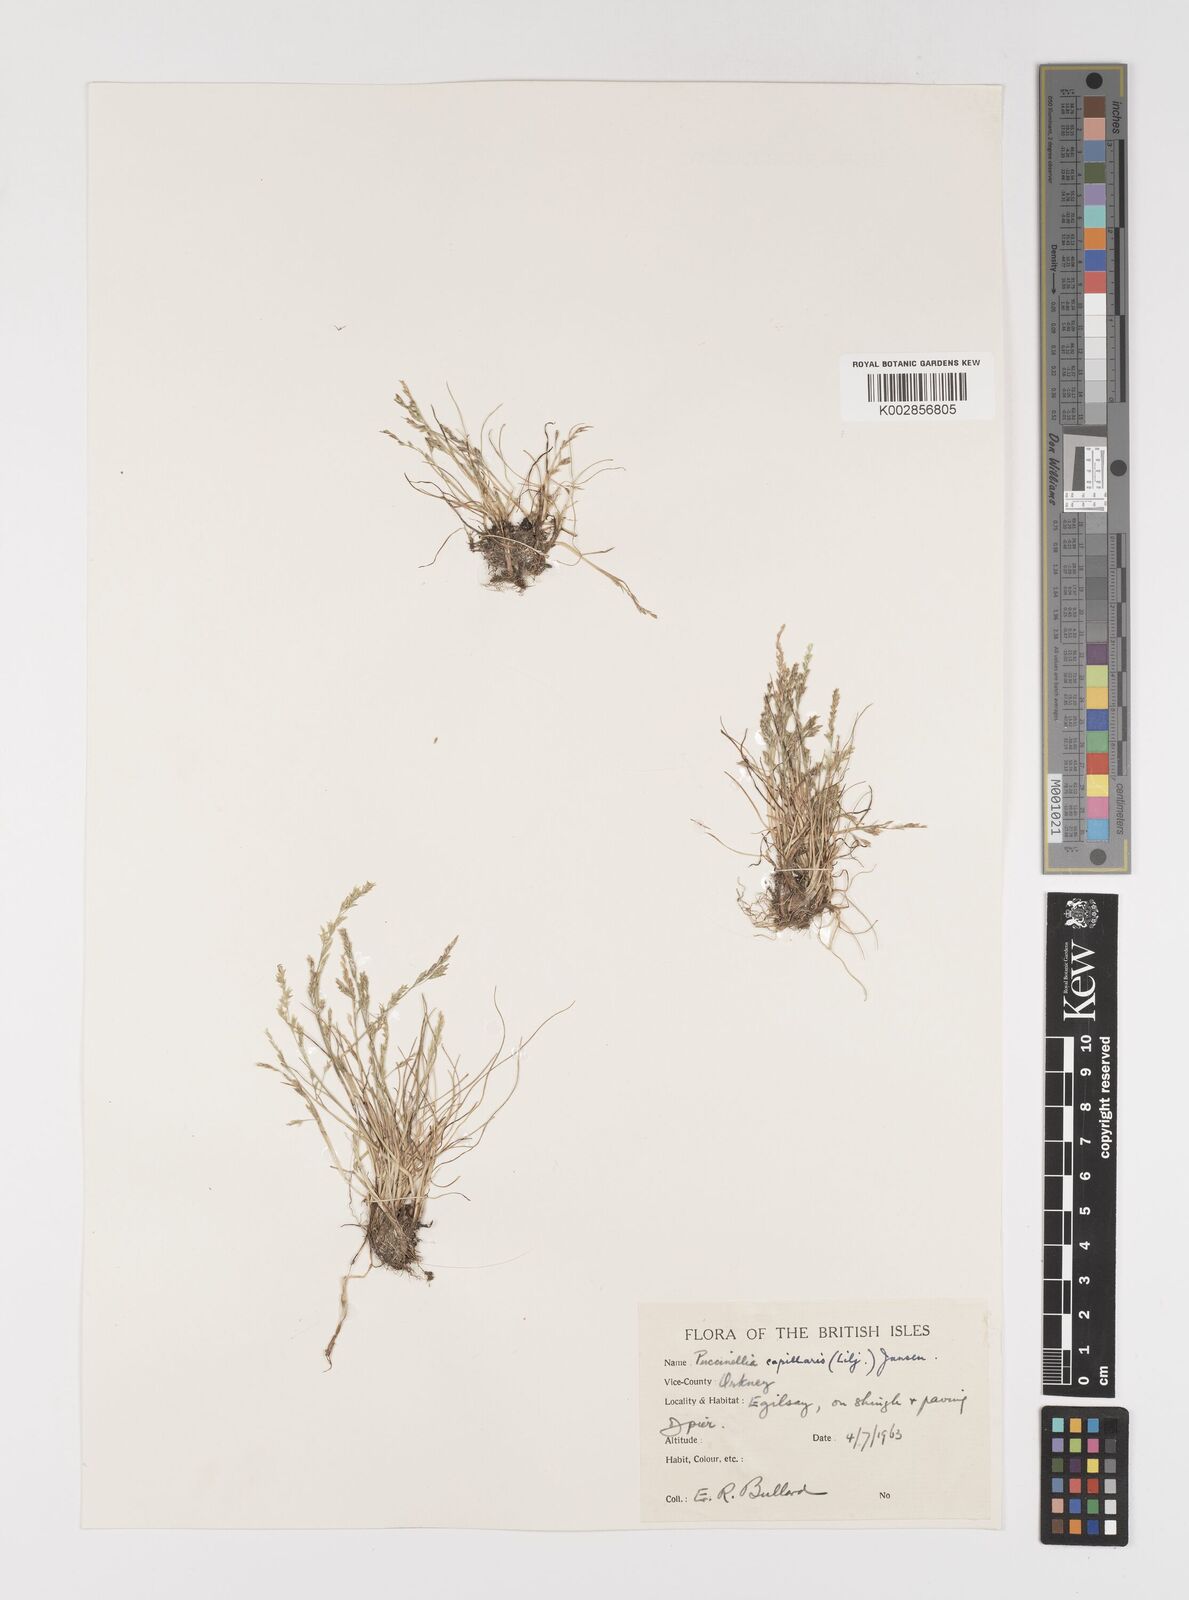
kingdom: Plantae
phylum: Tracheophyta
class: Liliopsida
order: Poales
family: Poaceae
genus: Puccinellia
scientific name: Puccinellia distans
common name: Weeping alkaligrass
